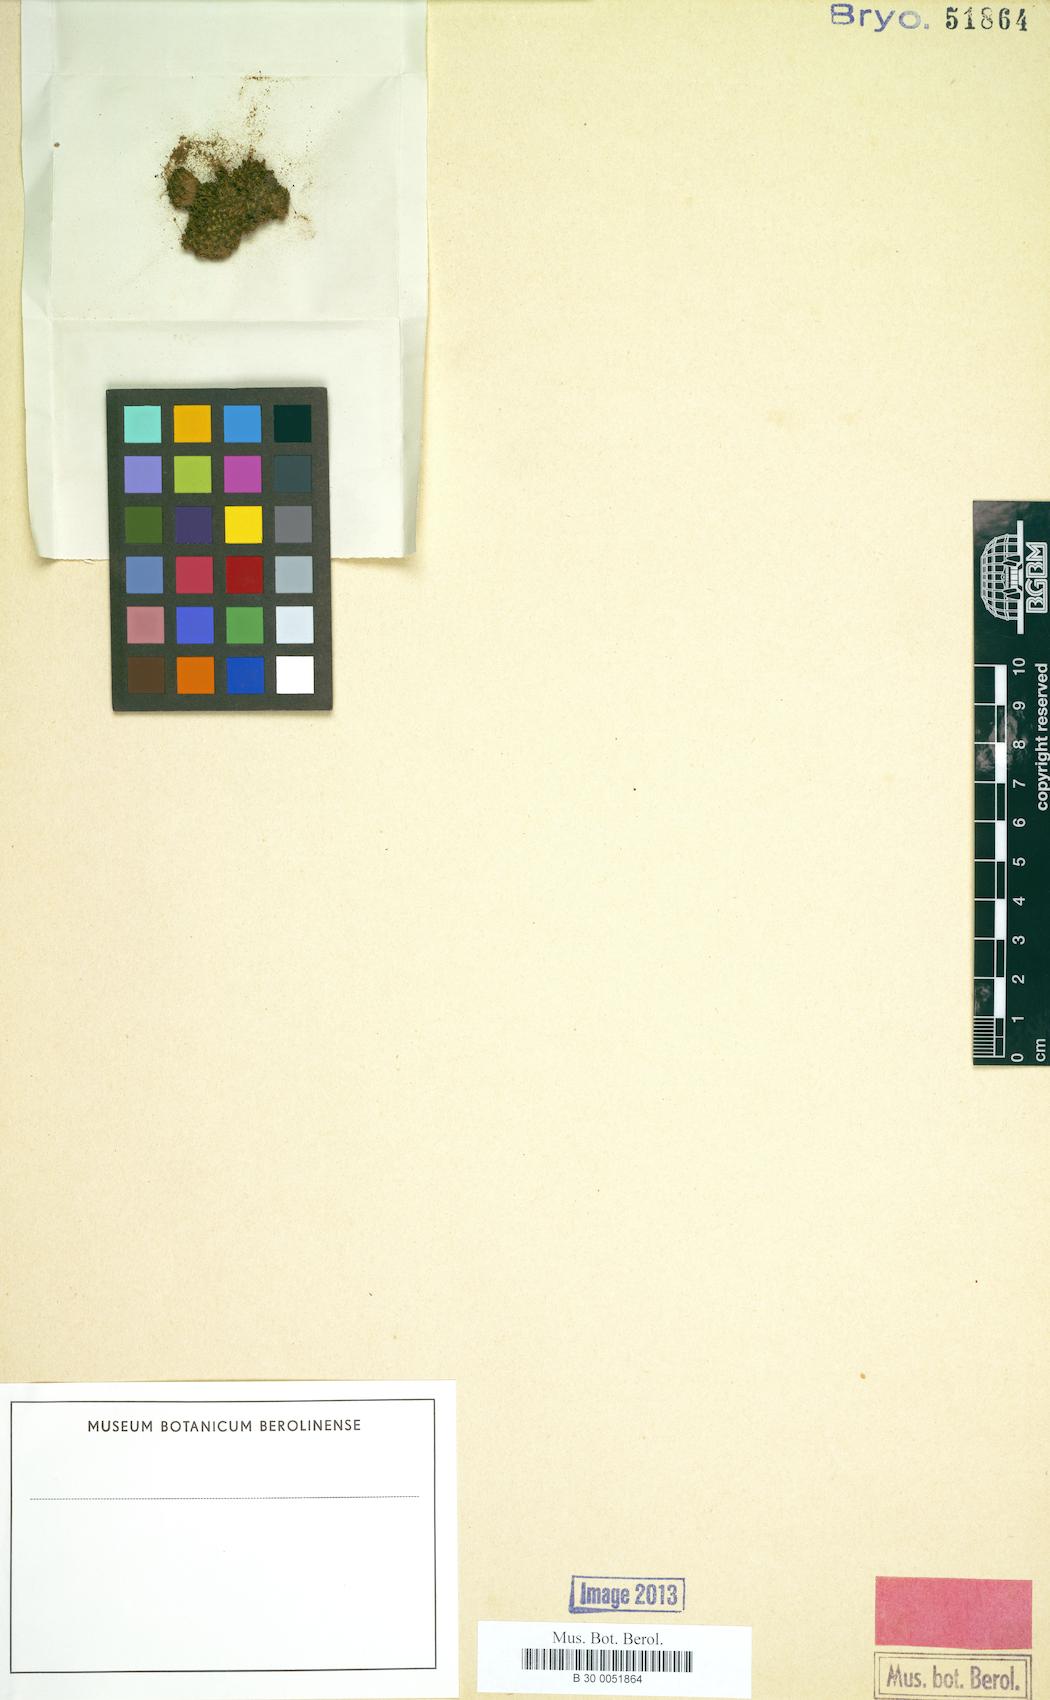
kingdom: Plantae
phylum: Bryophyta
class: Bryopsida
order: Pottiales
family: Pottiaceae
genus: Trichostomum
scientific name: Trichostomum ovatifolium
